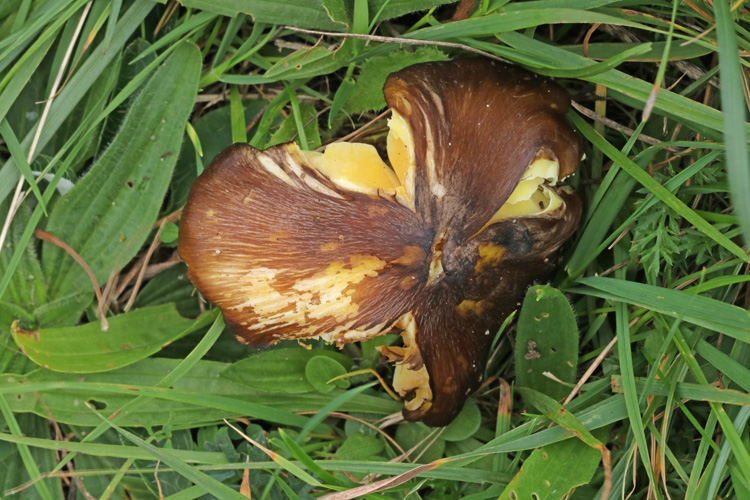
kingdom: Fungi
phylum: Basidiomycota
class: Agaricomycetes
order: Agaricales
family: Hygrophoraceae
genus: Hygrocybe
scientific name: Hygrocybe spadicea
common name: daddelbrun vokshat
